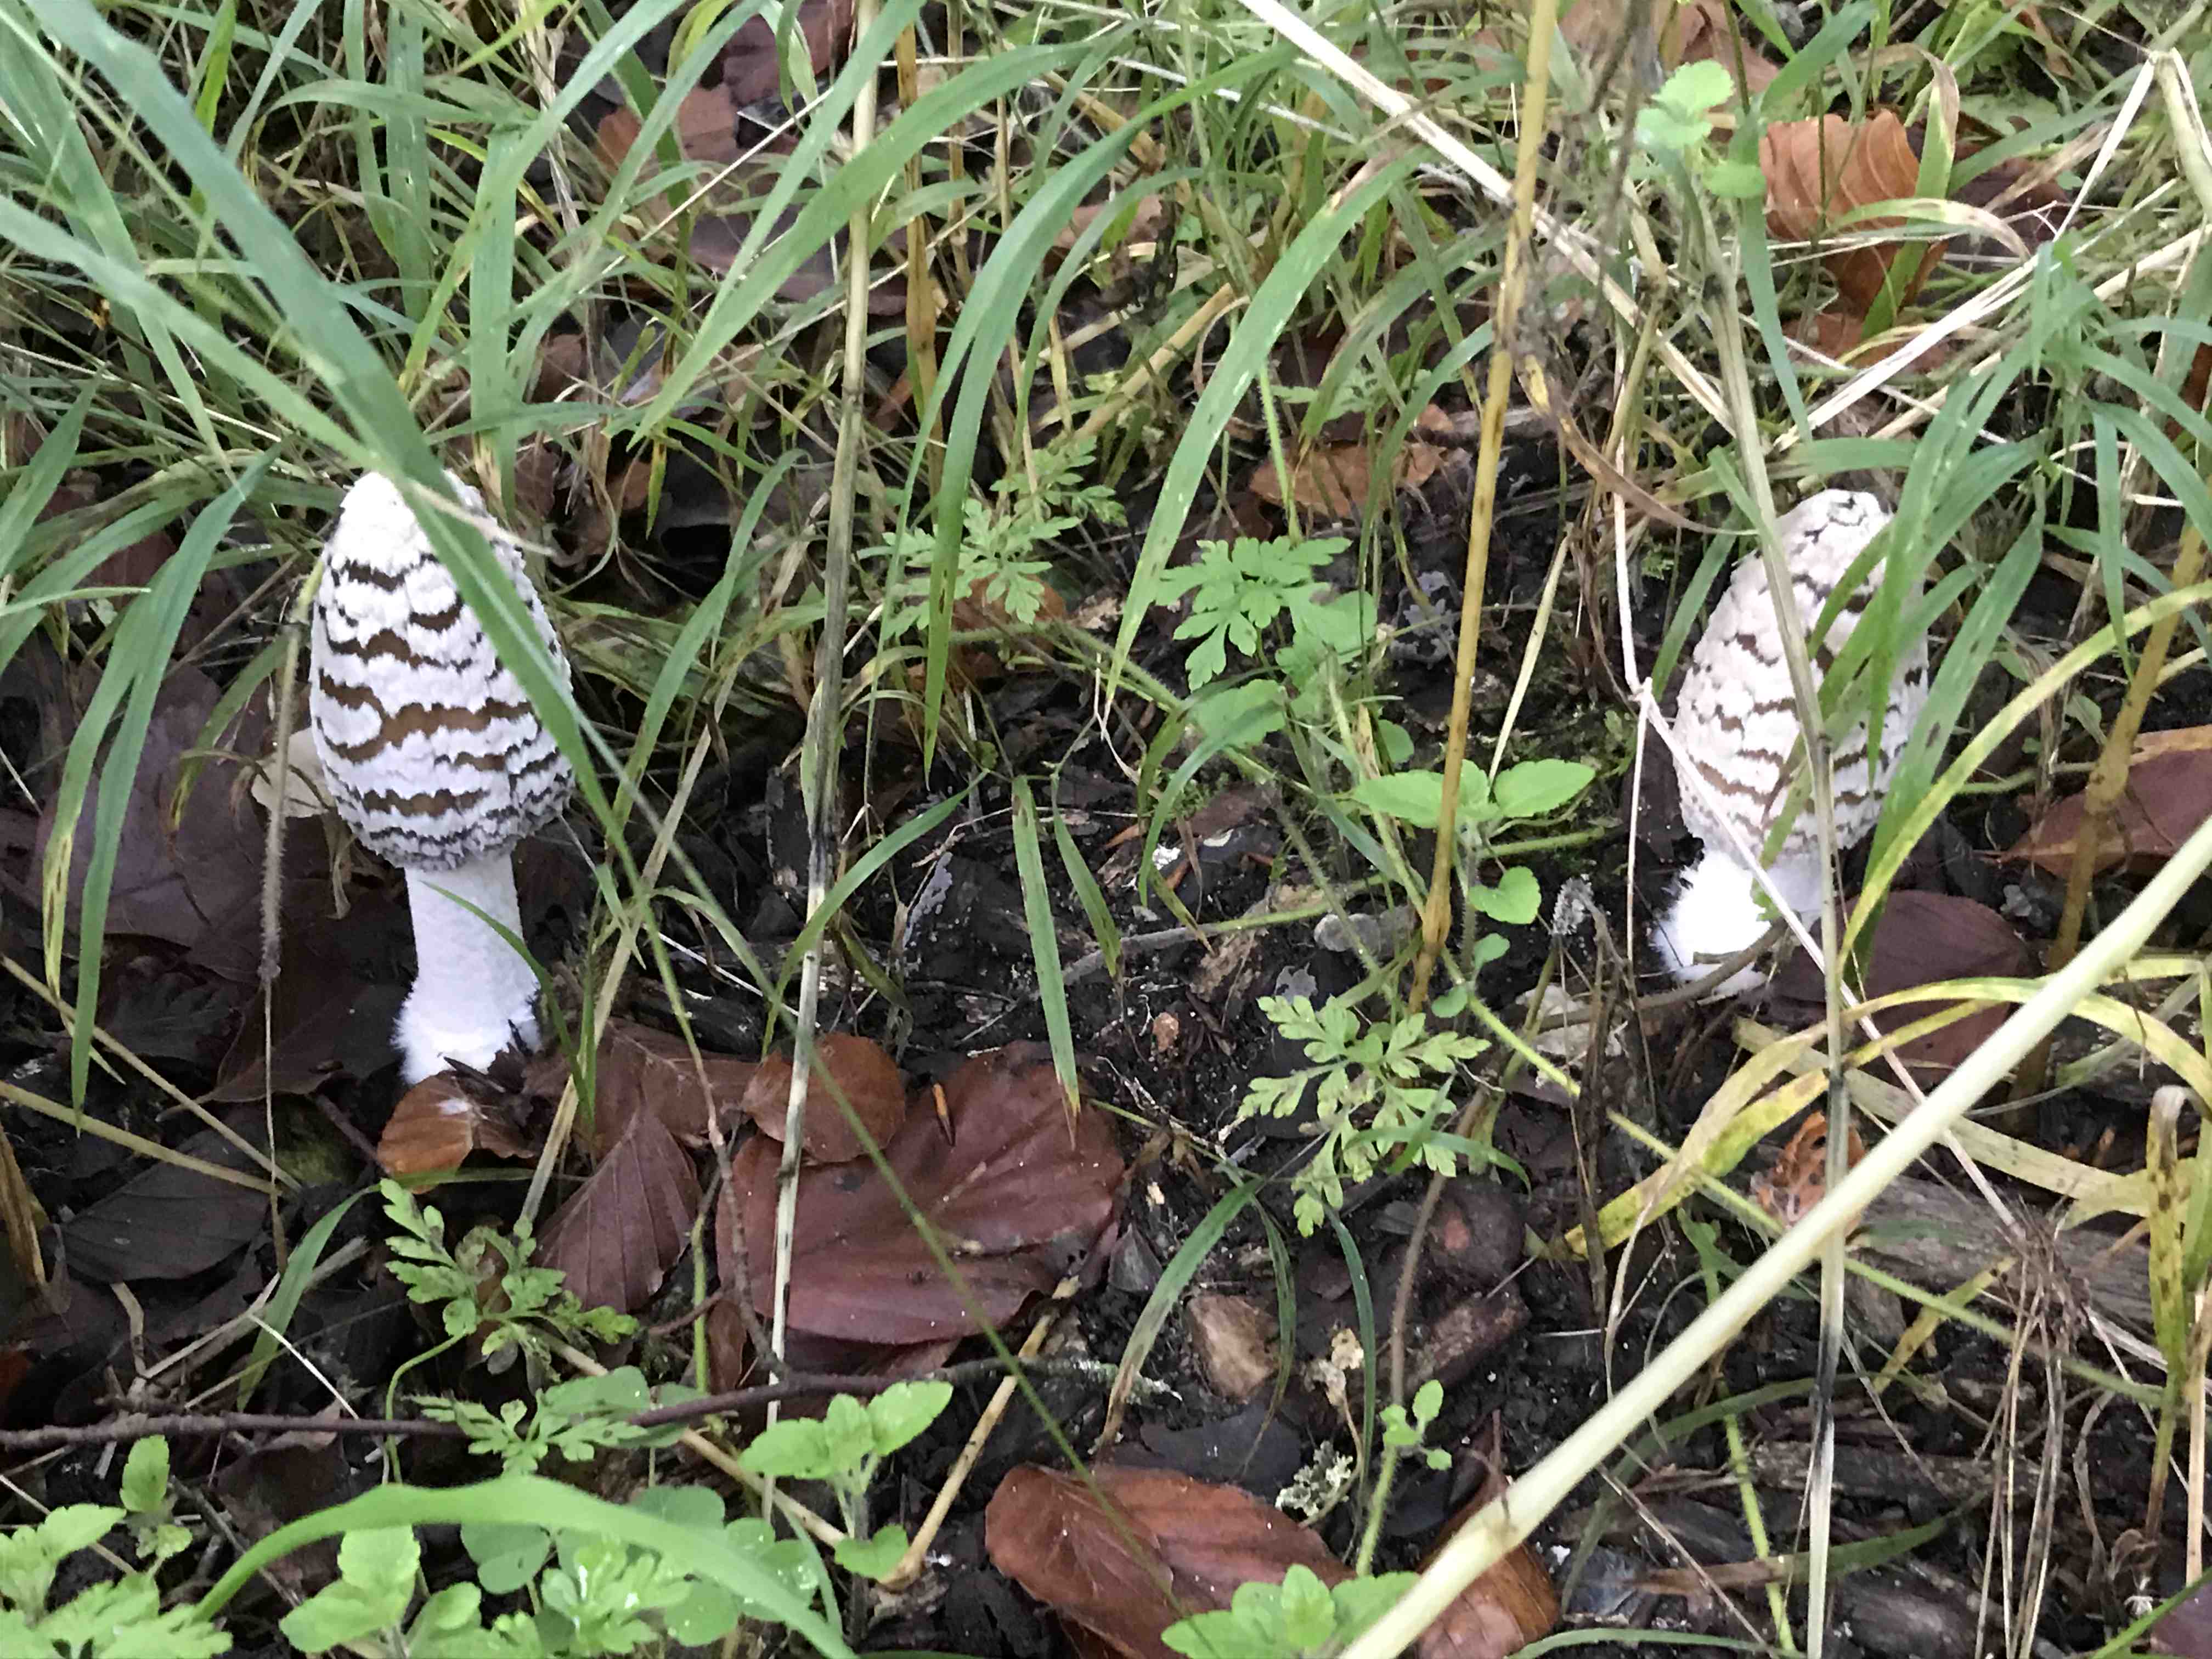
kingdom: Fungi
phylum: Basidiomycota
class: Agaricomycetes
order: Agaricales
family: Psathyrellaceae
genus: Coprinopsis
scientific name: Coprinopsis picacea
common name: skade-blækhat
